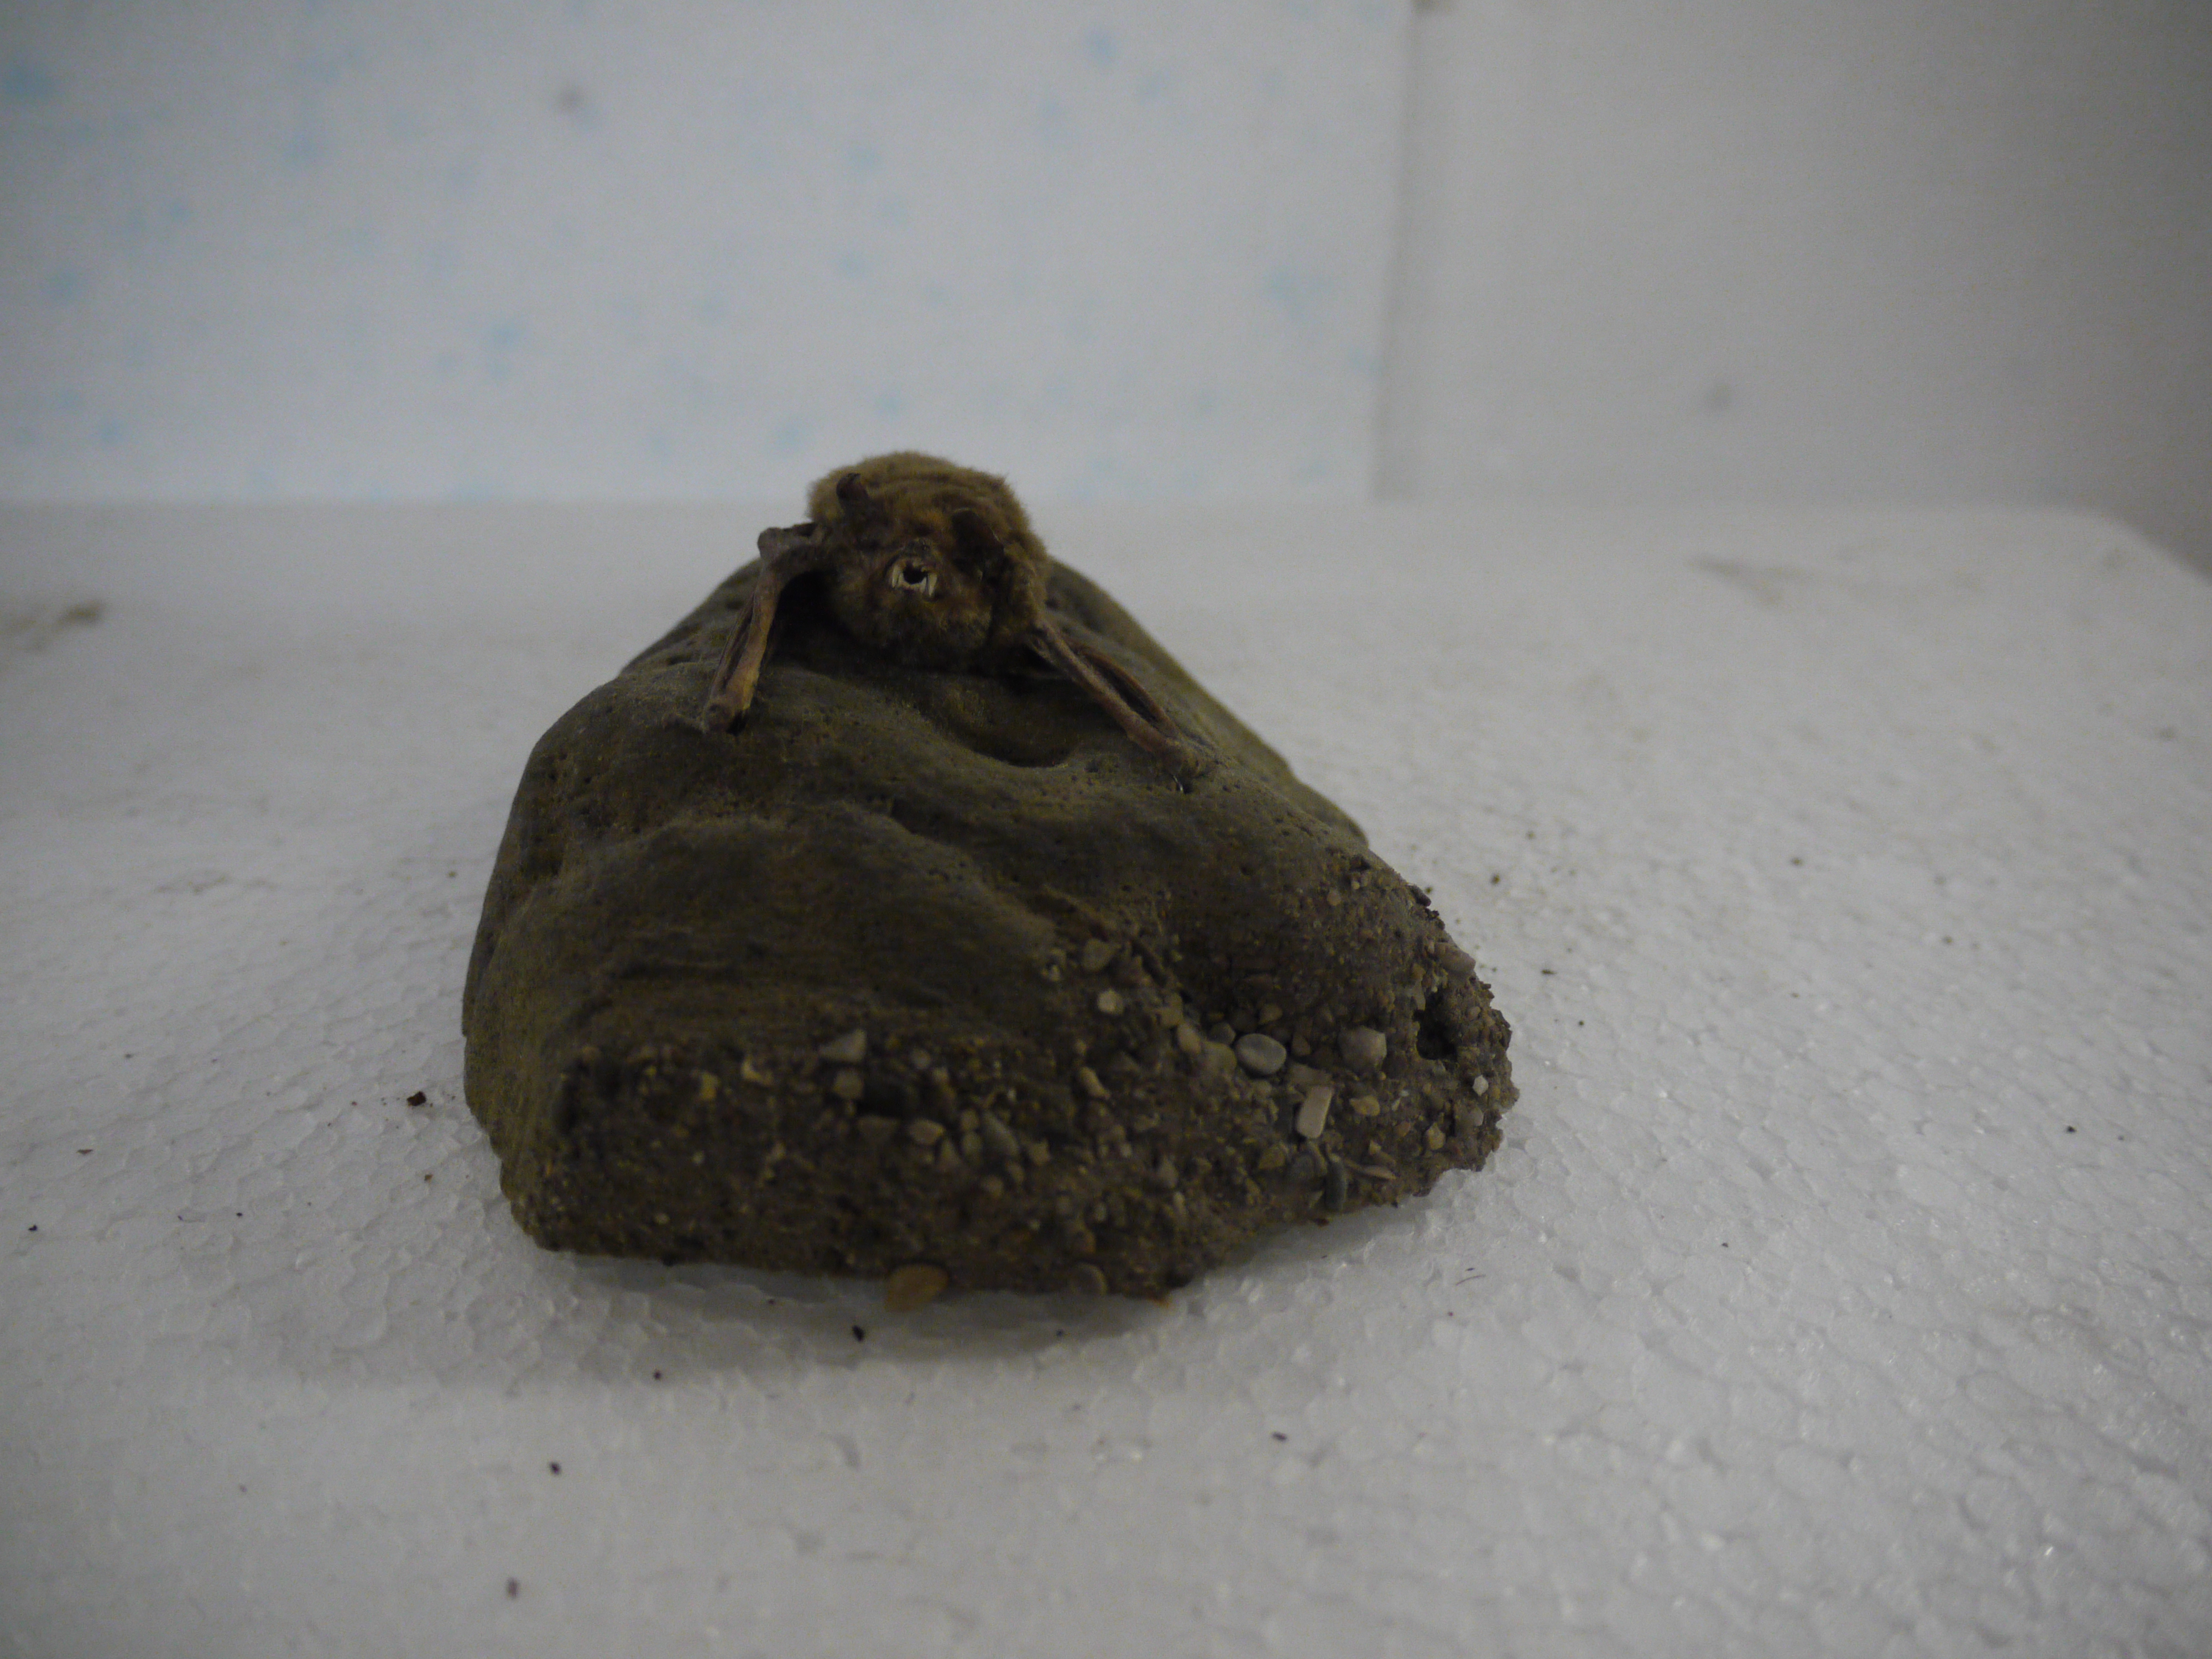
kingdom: Animalia
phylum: Chordata
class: Mammalia
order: Chiroptera
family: Vespertilionidae
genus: Pipistrellus
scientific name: Pipistrellus pipistrellus
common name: Common pipistrelle
